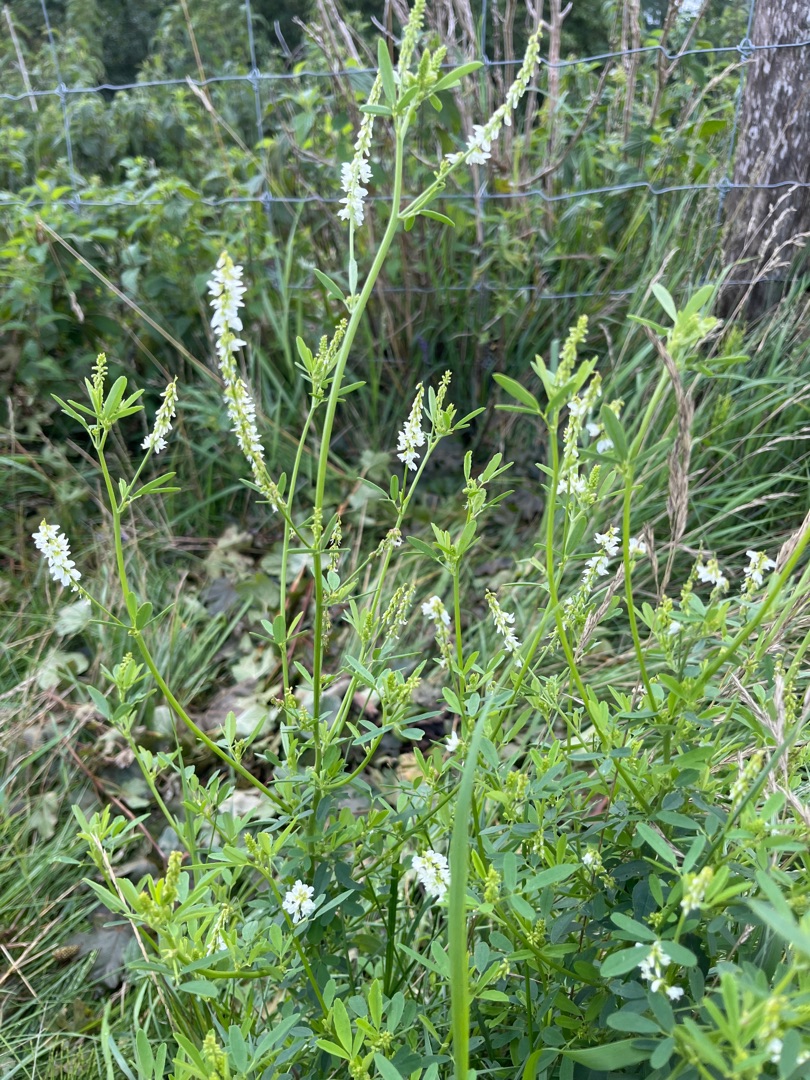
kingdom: Plantae
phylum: Tracheophyta
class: Magnoliopsida
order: Fabales
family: Fabaceae
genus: Melilotus
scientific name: Melilotus albus
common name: Hvid stenkløver
